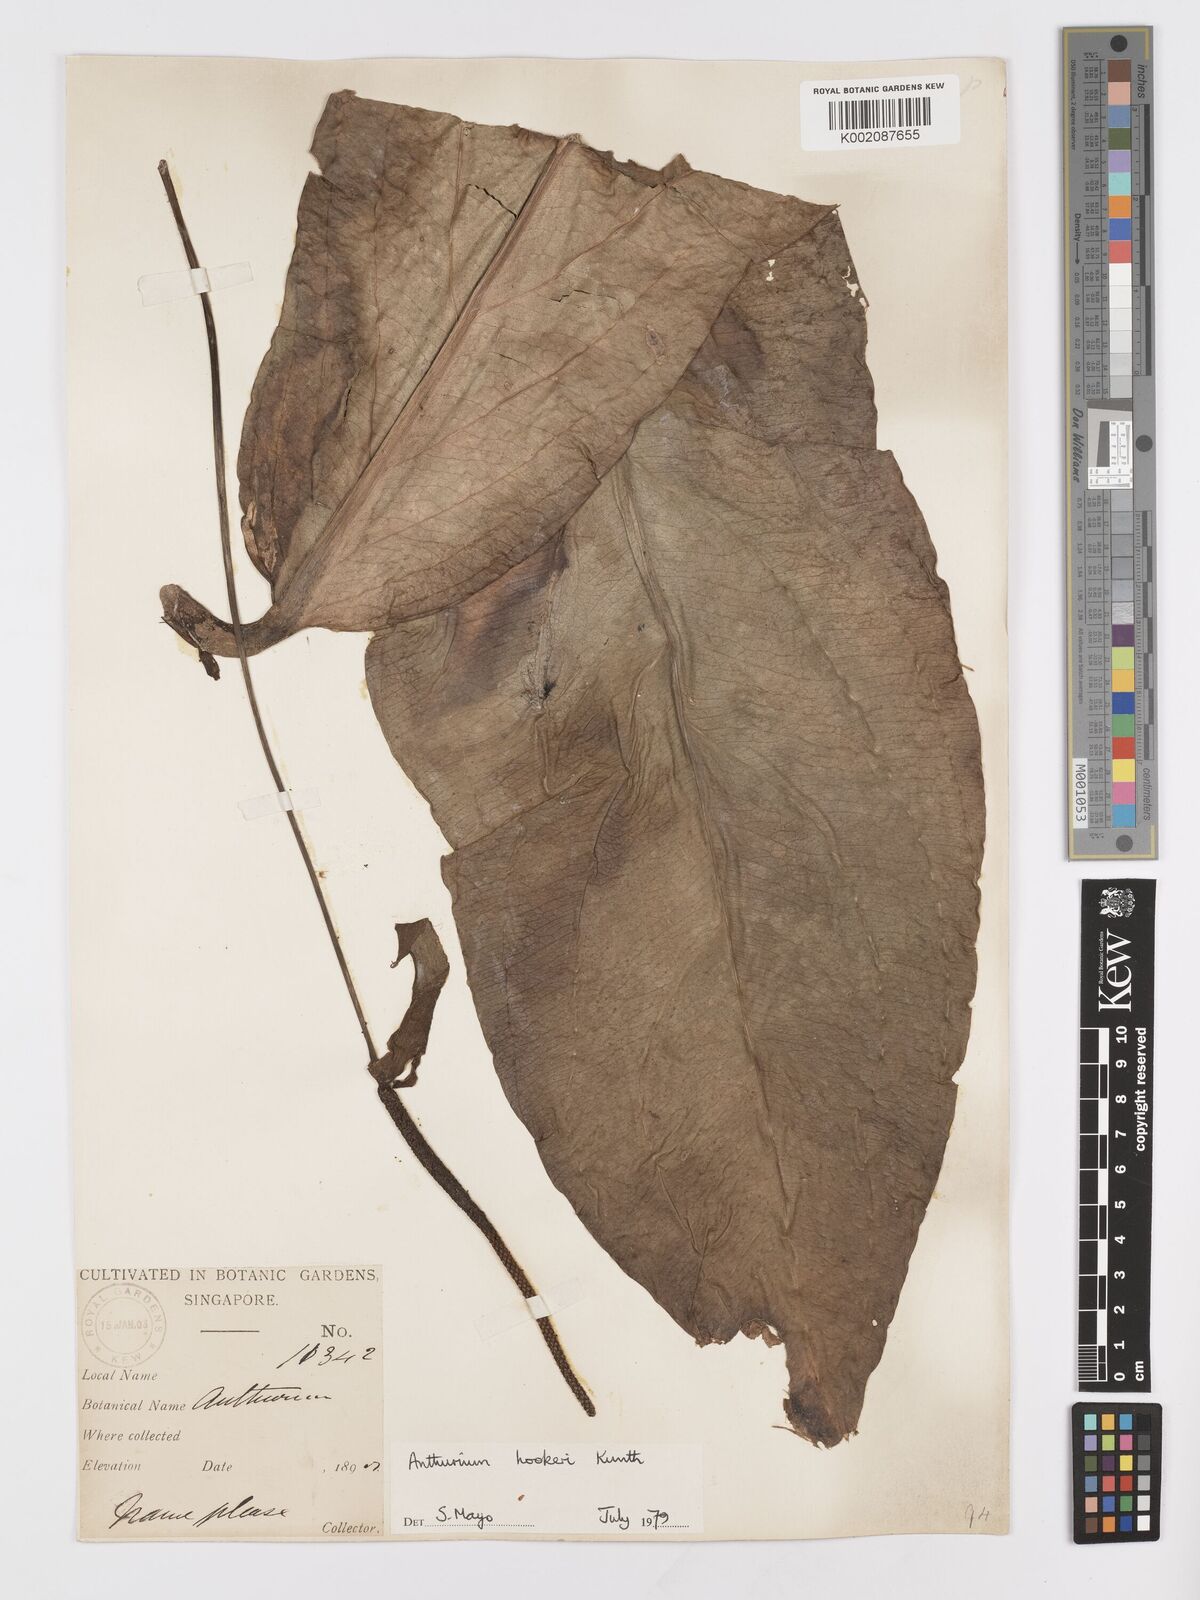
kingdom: Plantae
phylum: Tracheophyta
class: Liliopsida
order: Alismatales
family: Araceae
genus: Anthurium
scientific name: Anthurium hookeri
